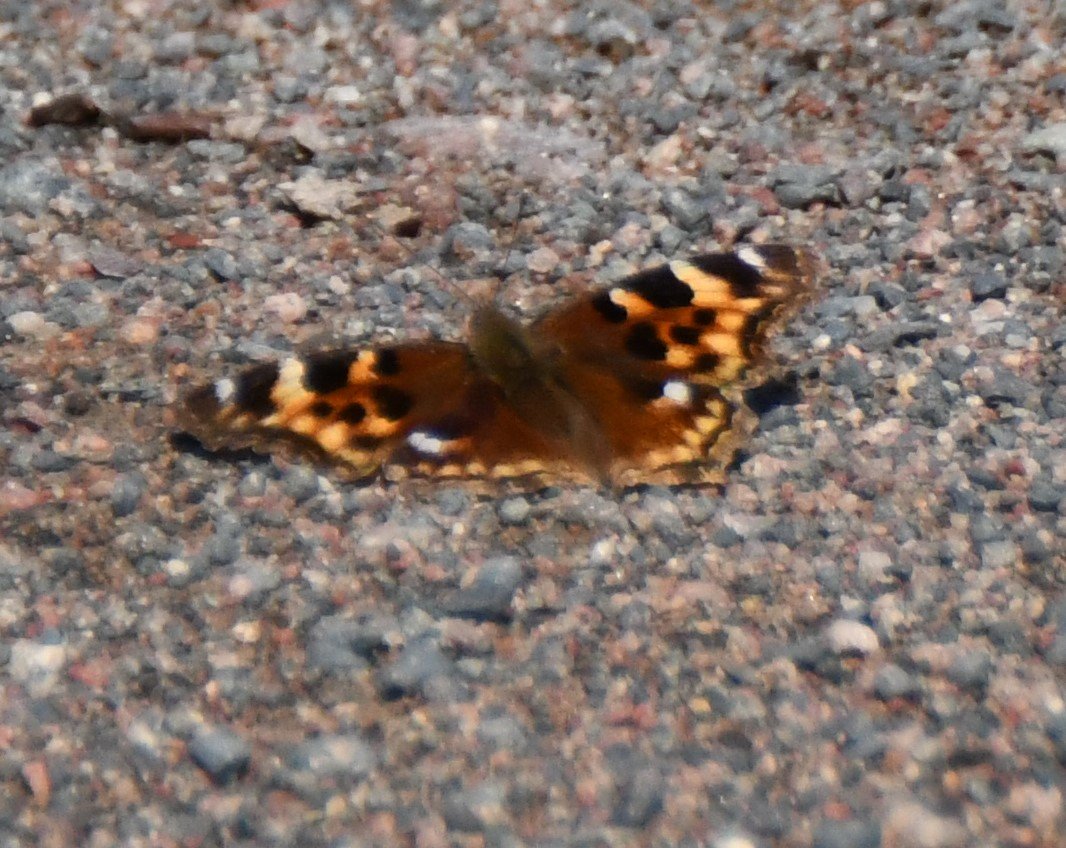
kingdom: Animalia
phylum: Arthropoda
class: Insecta
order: Lepidoptera
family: Nymphalidae
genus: Polygonia
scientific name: Polygonia vaualbum
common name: Compton Tortoiseshell
